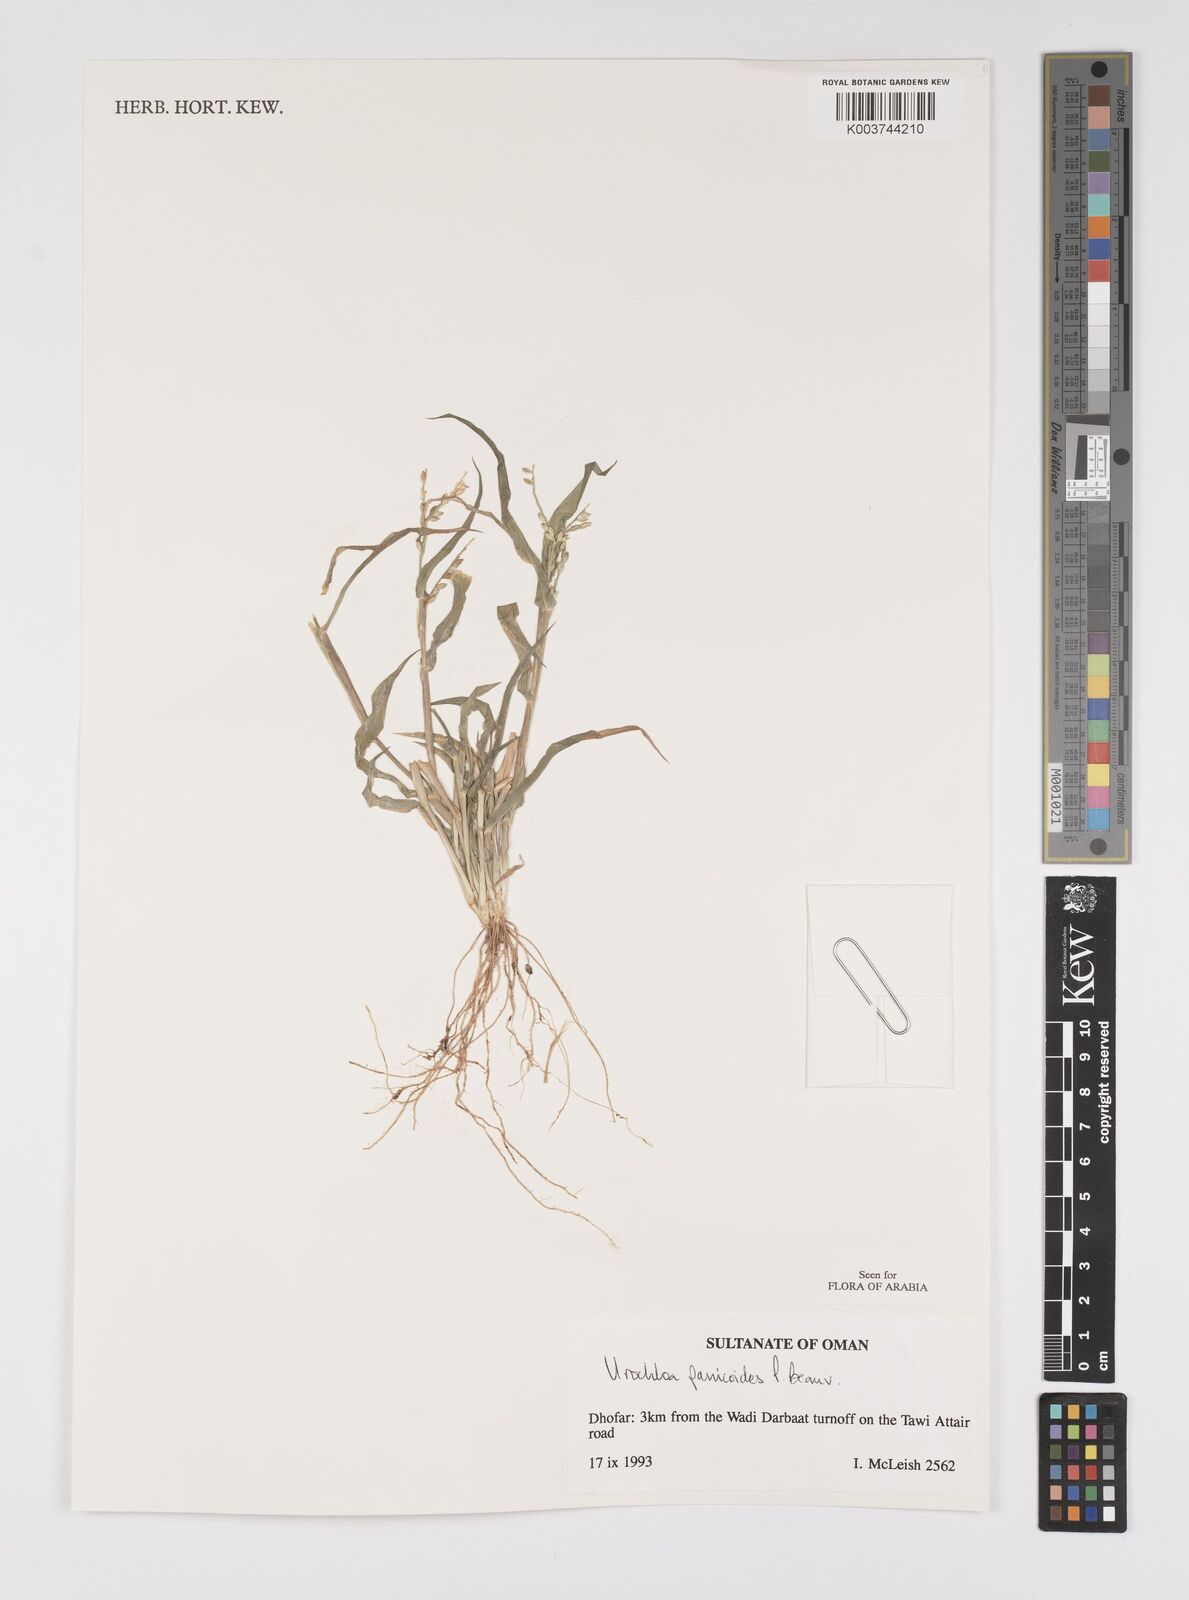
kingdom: Plantae
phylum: Tracheophyta
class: Liliopsida
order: Poales
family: Poaceae
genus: Urochloa
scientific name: Urochloa panicoides
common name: Sharp-flowered signal-grass
